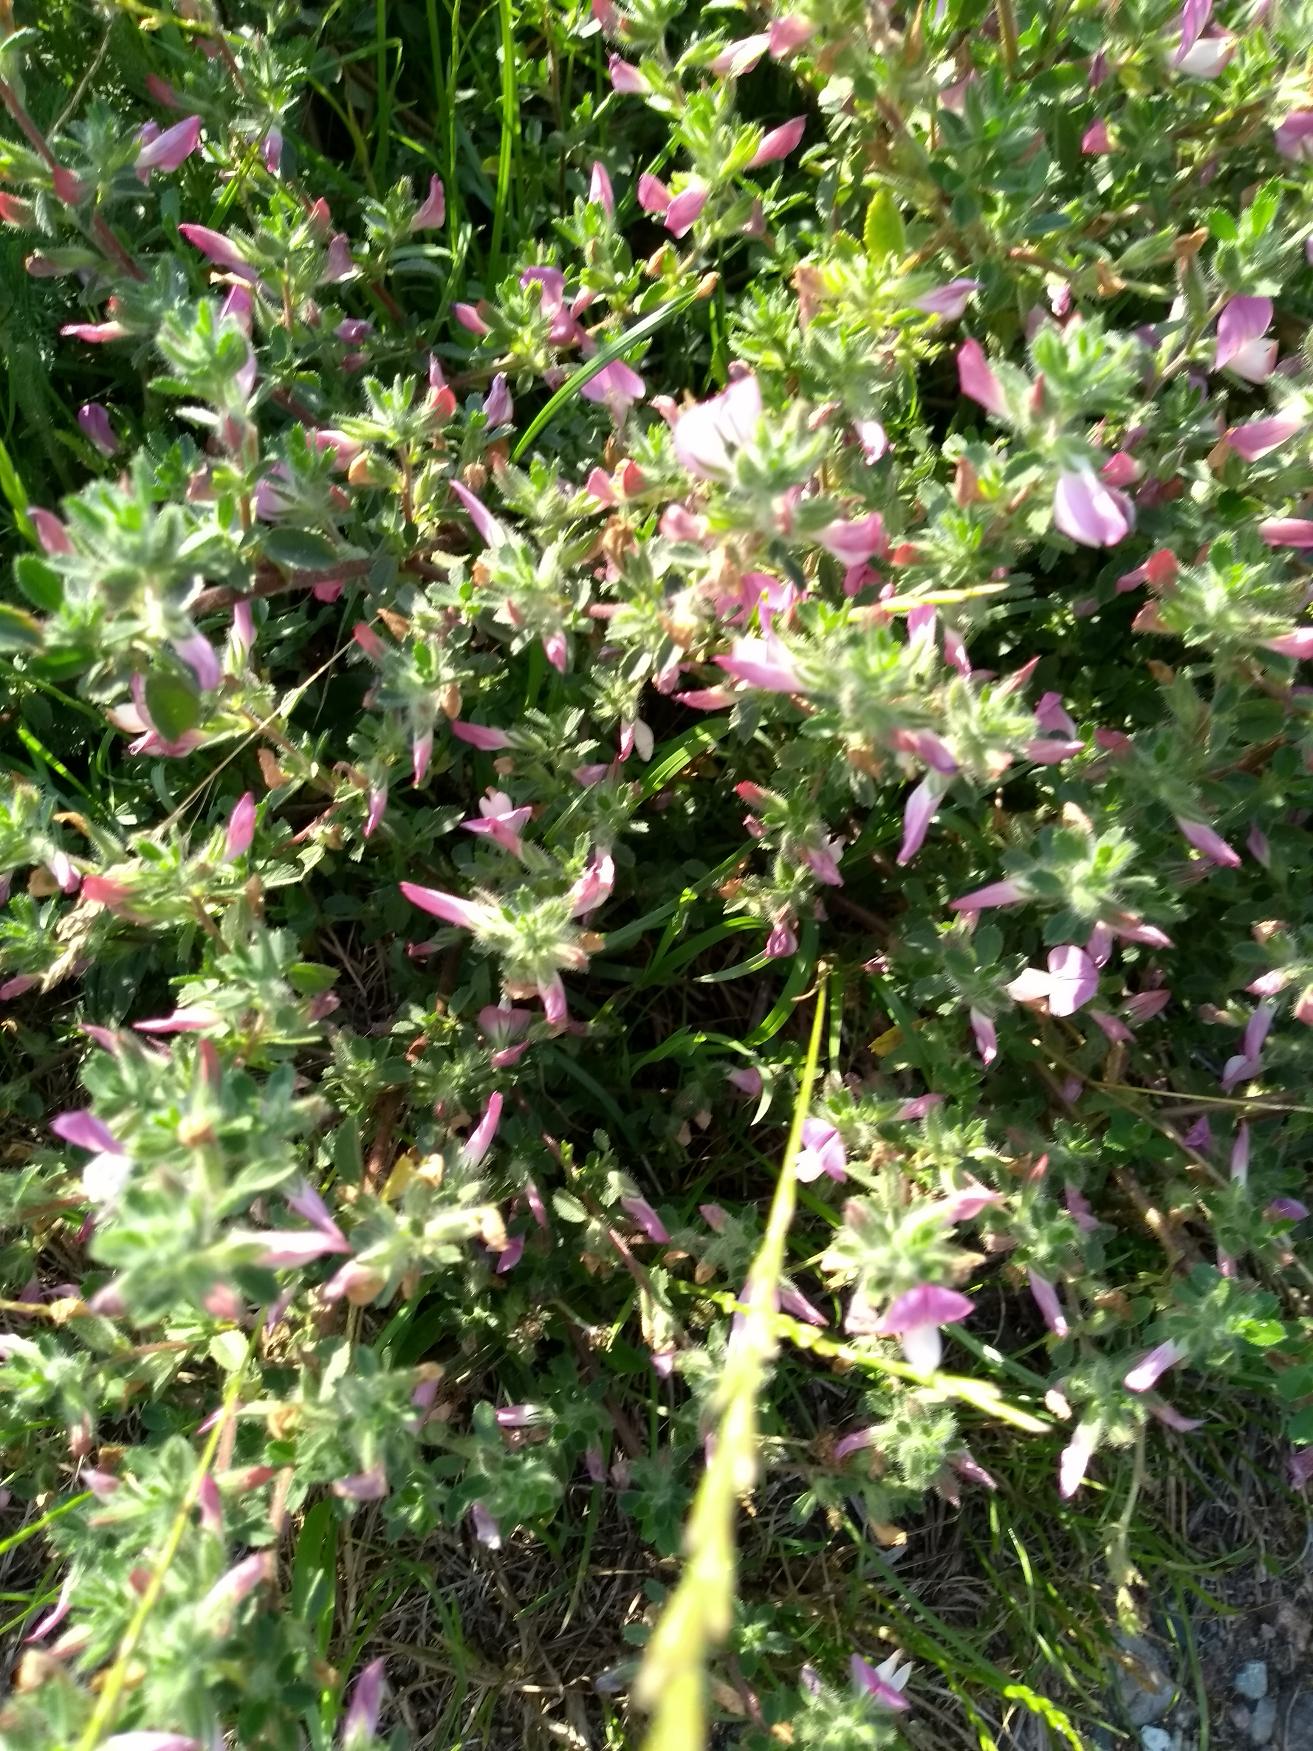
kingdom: Plantae
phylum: Tracheophyta
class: Magnoliopsida
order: Fabales
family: Fabaceae
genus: Ononis
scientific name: Ononis spinosa
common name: Mark-krageklo
